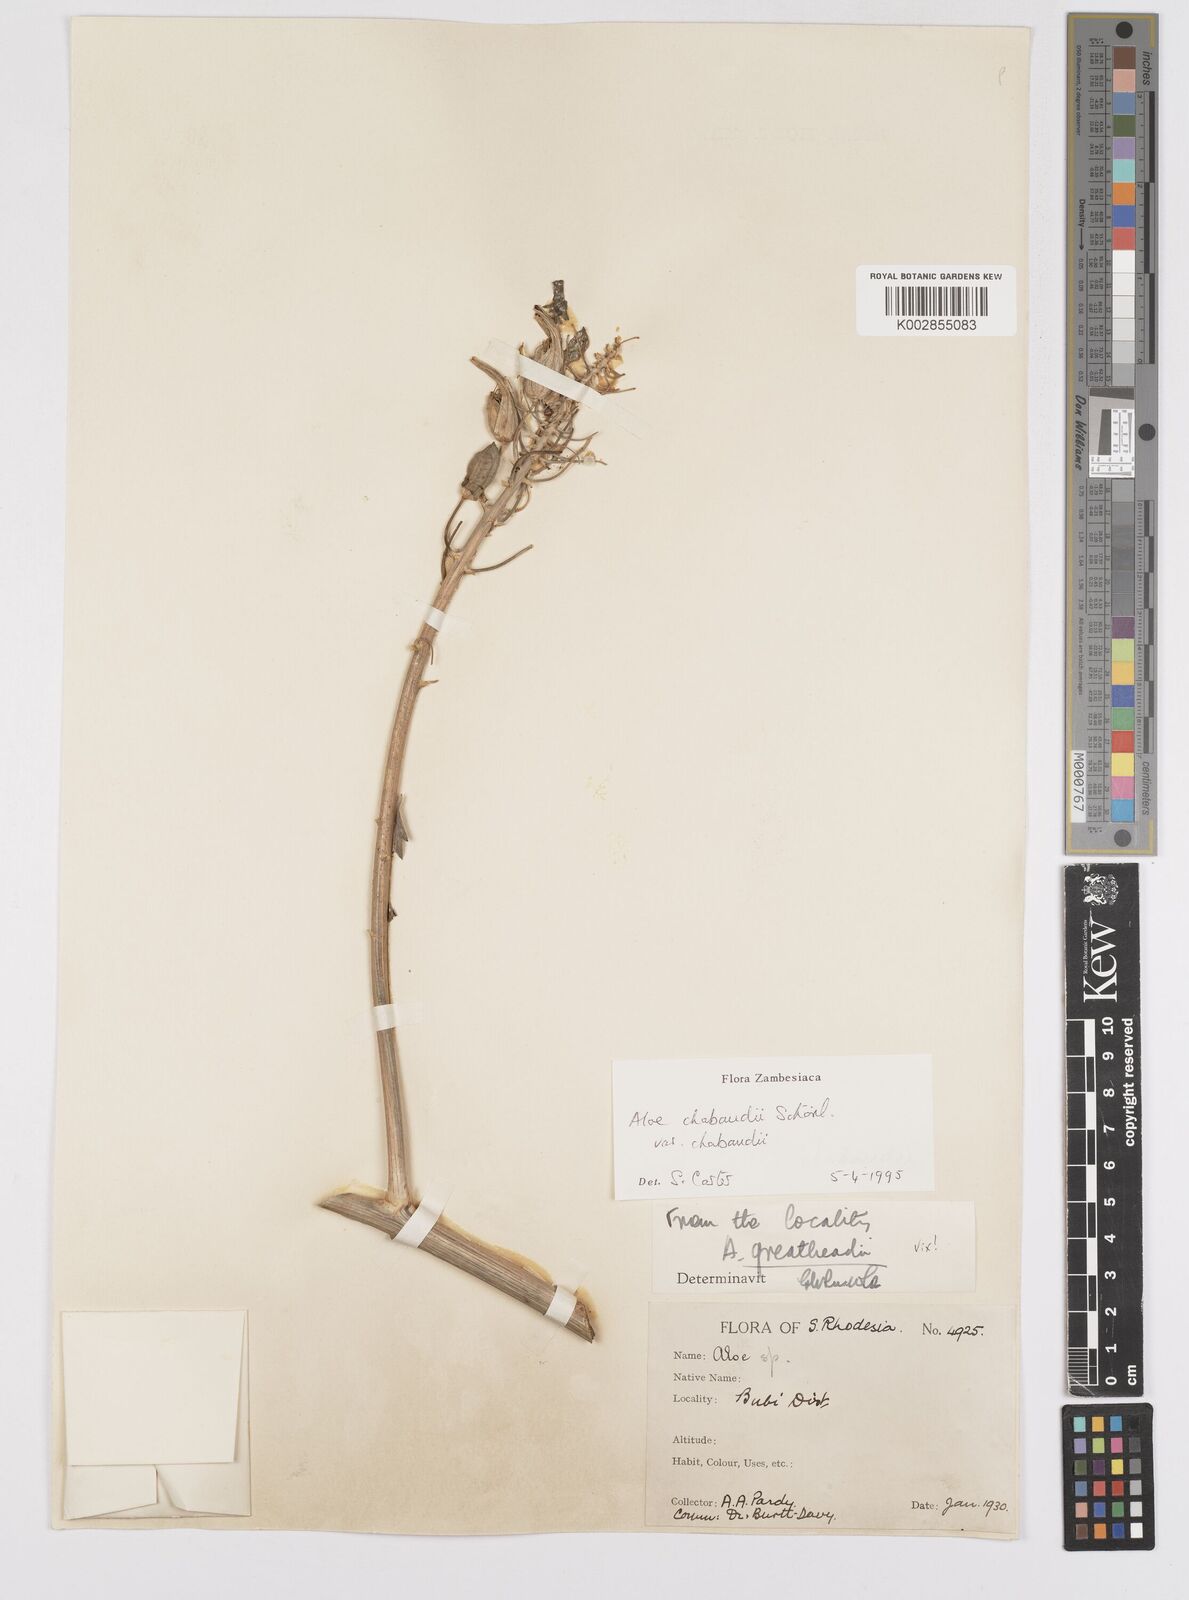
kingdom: Plantae
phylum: Tracheophyta
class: Liliopsida
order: Asparagales
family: Asphodelaceae
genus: Aloe
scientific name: Aloe chabaudii
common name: Chabaud's aloe
